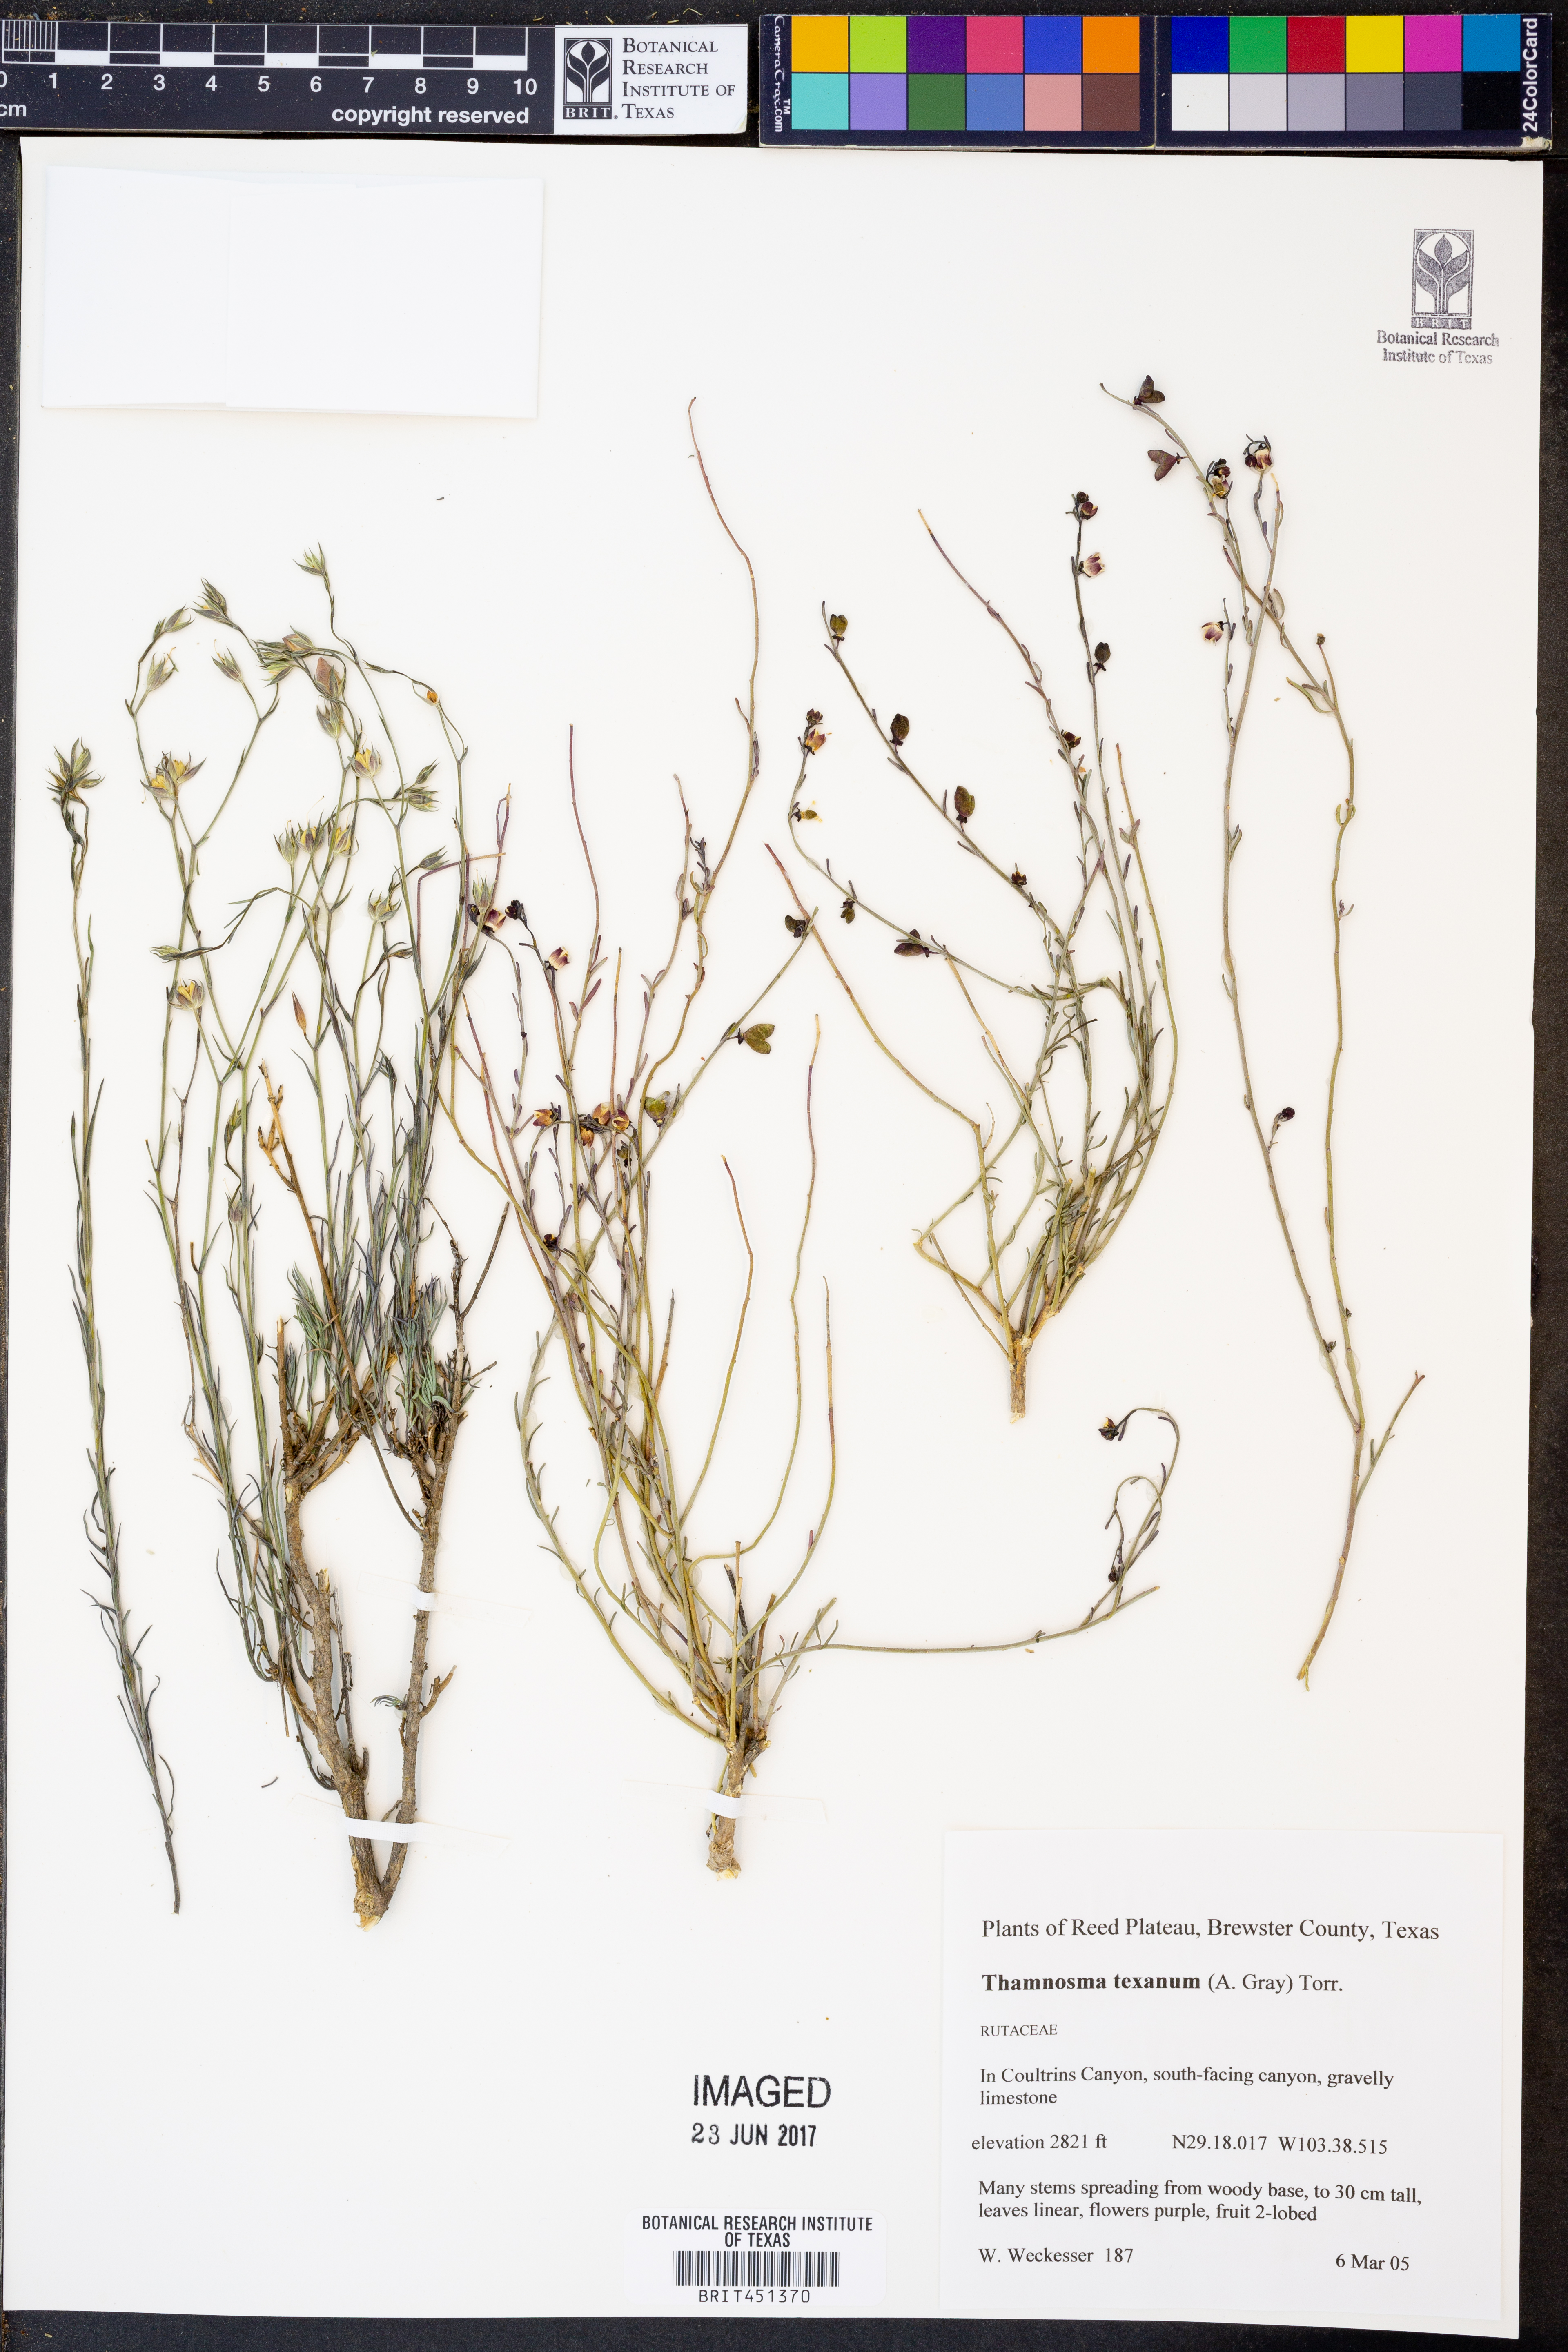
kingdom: Plantae
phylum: Tracheophyta
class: Magnoliopsida
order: Sapindales
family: Rutaceae
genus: Thamnosma
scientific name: Thamnosma texana
